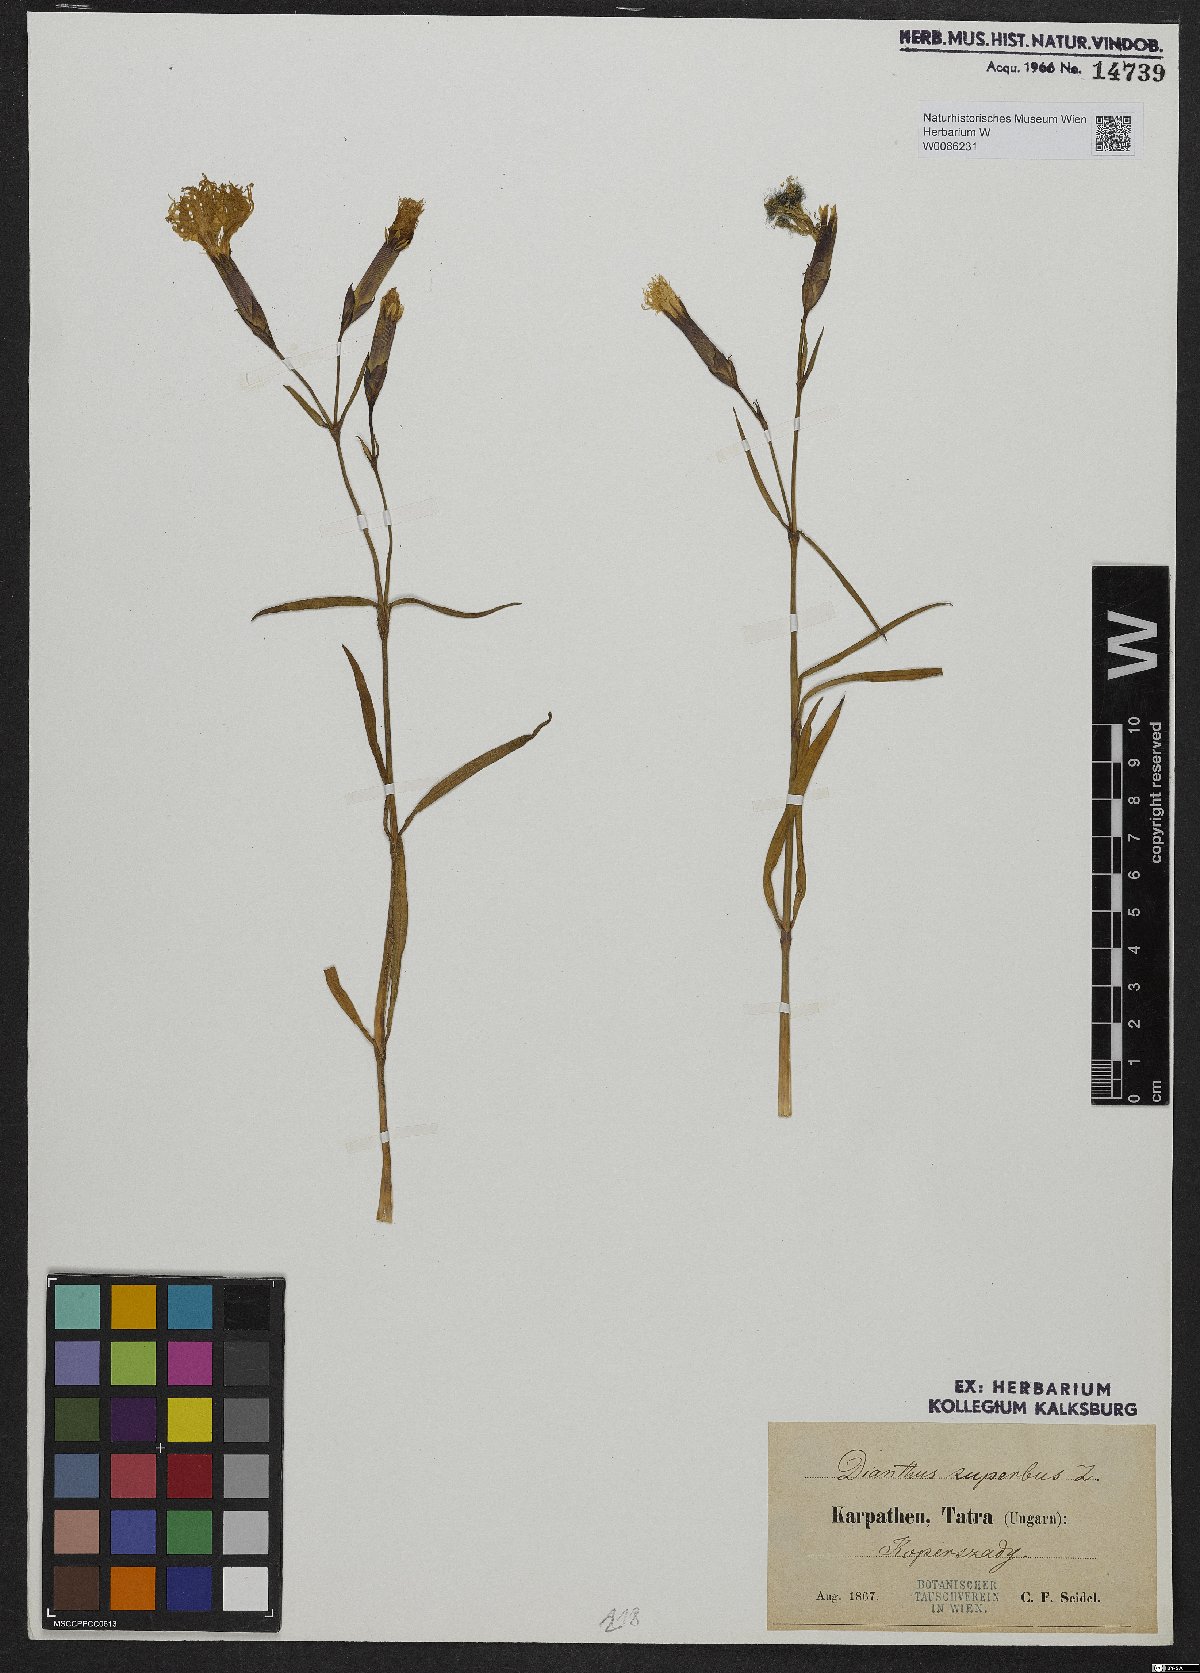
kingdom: Plantae
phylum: Tracheophyta
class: Magnoliopsida
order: Caryophyllales
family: Caryophyllaceae
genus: Dianthus
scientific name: Dianthus superbus
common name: Fringed pink
